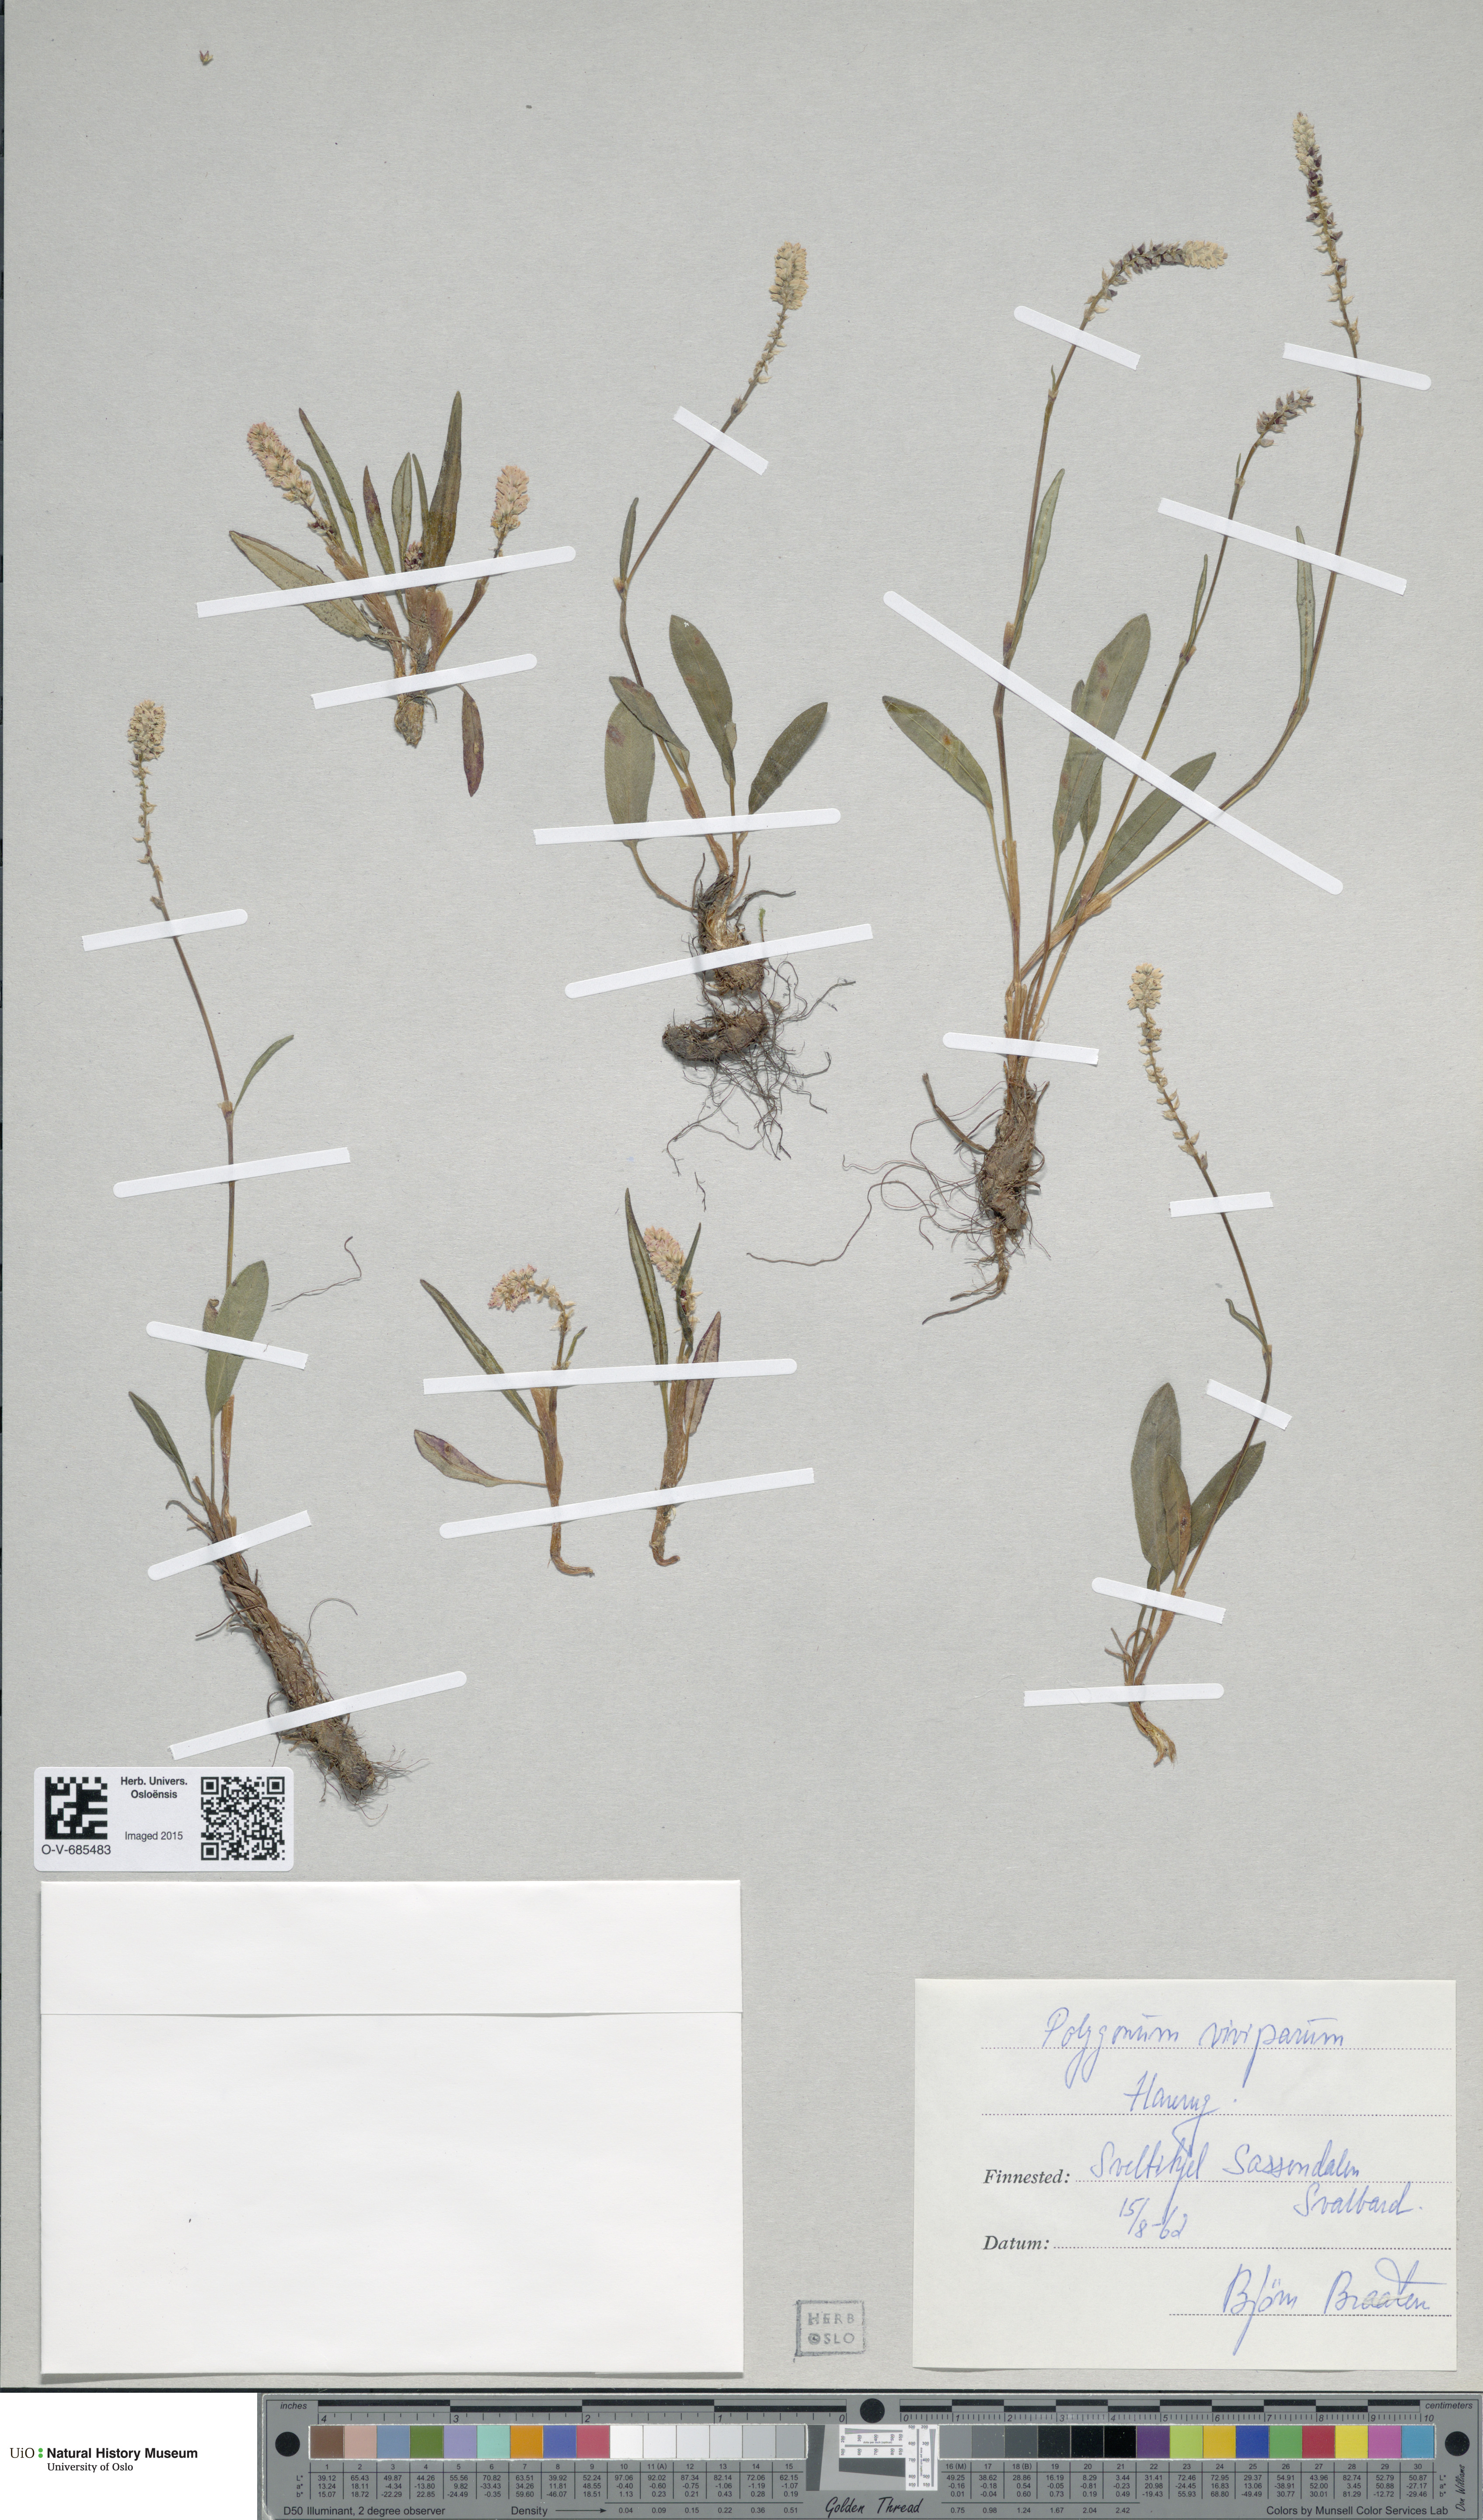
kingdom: Plantae
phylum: Tracheophyta
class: Magnoliopsida
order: Caryophyllales
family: Polygonaceae
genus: Bistorta
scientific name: Bistorta vivipara
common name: Alpine bistort
